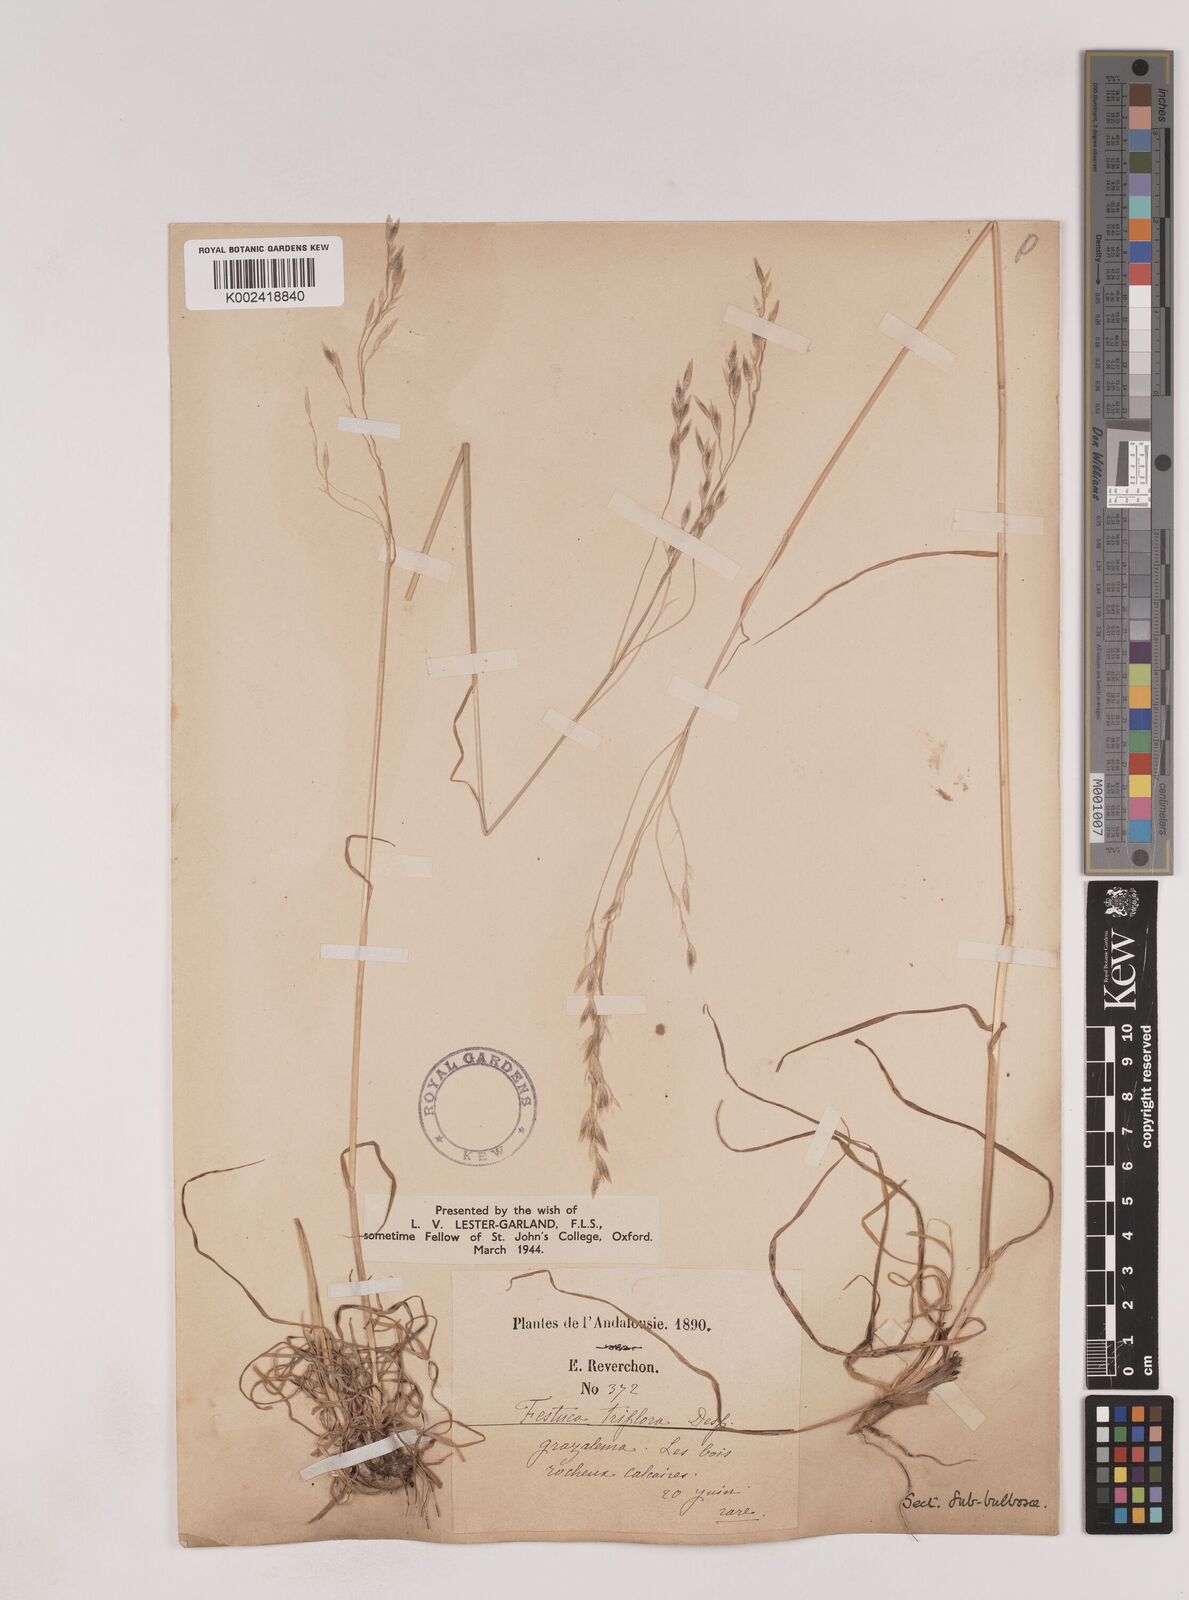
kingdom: Plantae
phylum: Tracheophyta
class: Liliopsida
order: Poales
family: Poaceae
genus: Patzkea
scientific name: Patzkea patula
